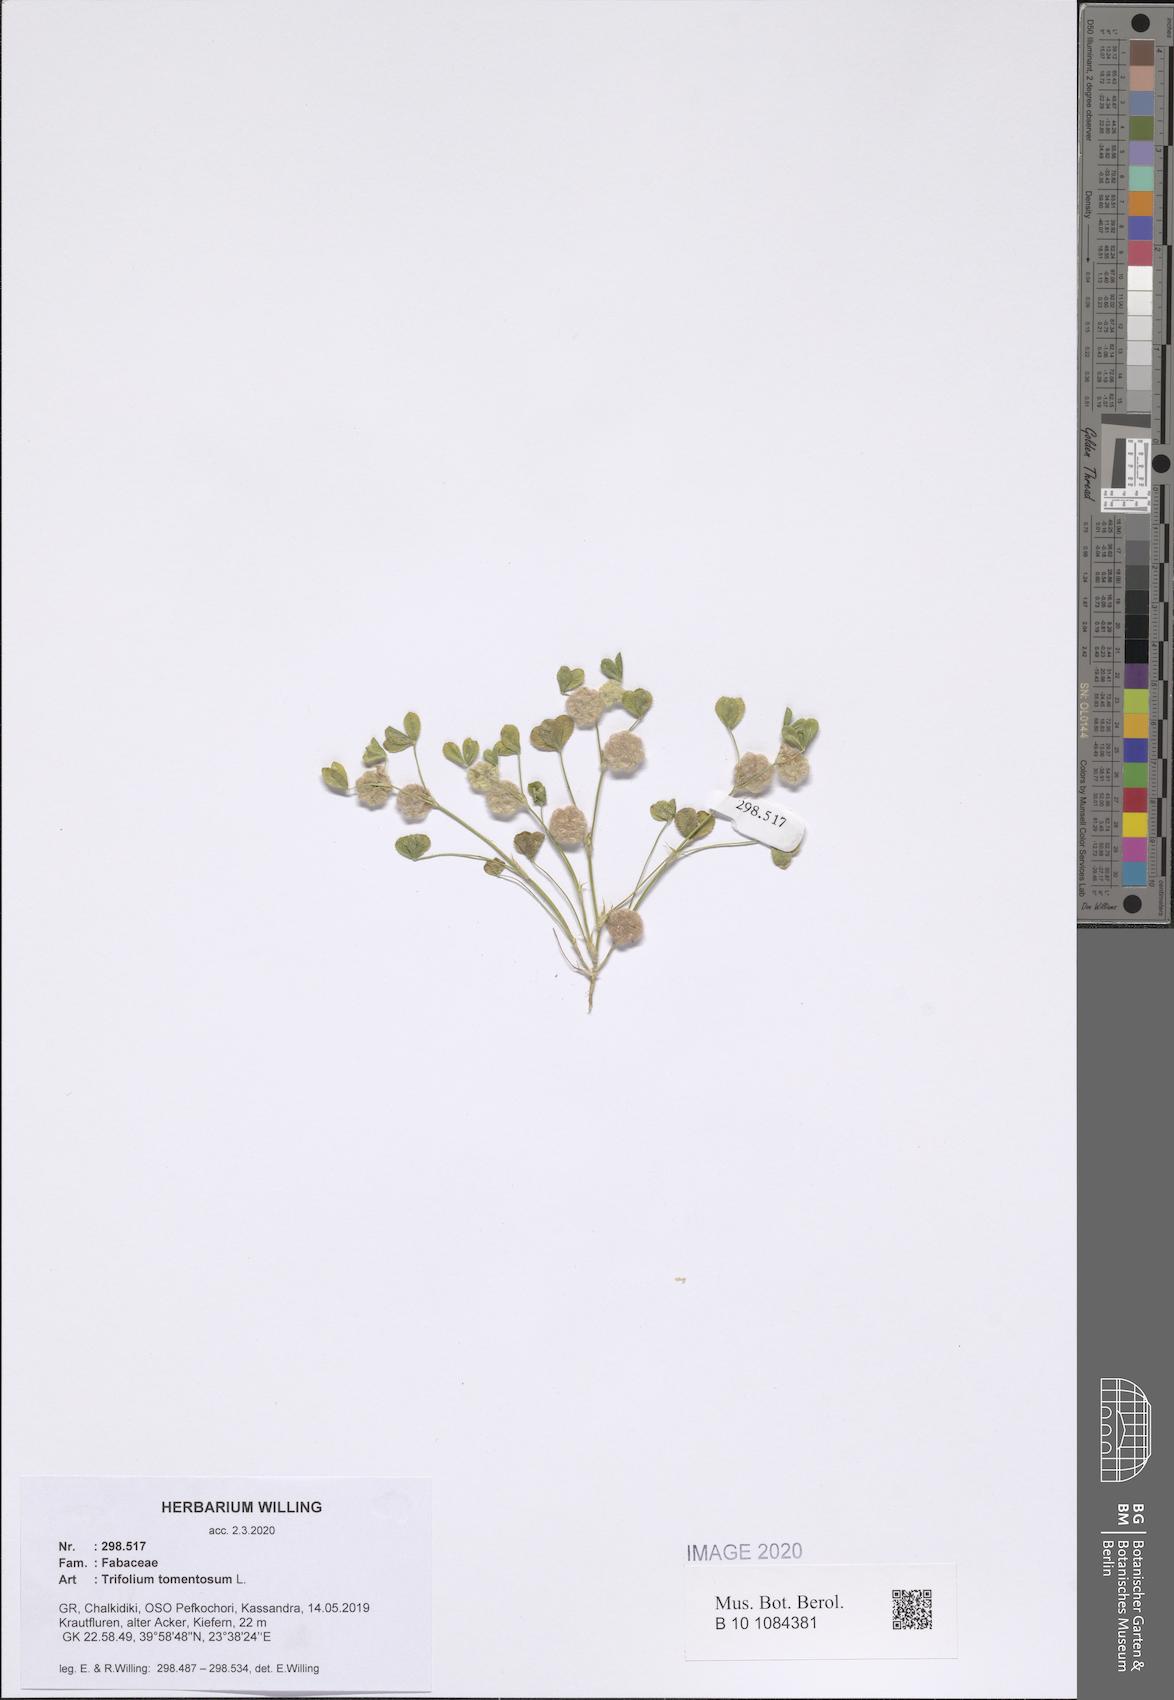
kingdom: Plantae
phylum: Tracheophyta
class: Magnoliopsida
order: Fabales
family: Fabaceae
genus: Trifolium
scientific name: Trifolium tomentosum
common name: Woolly clover
